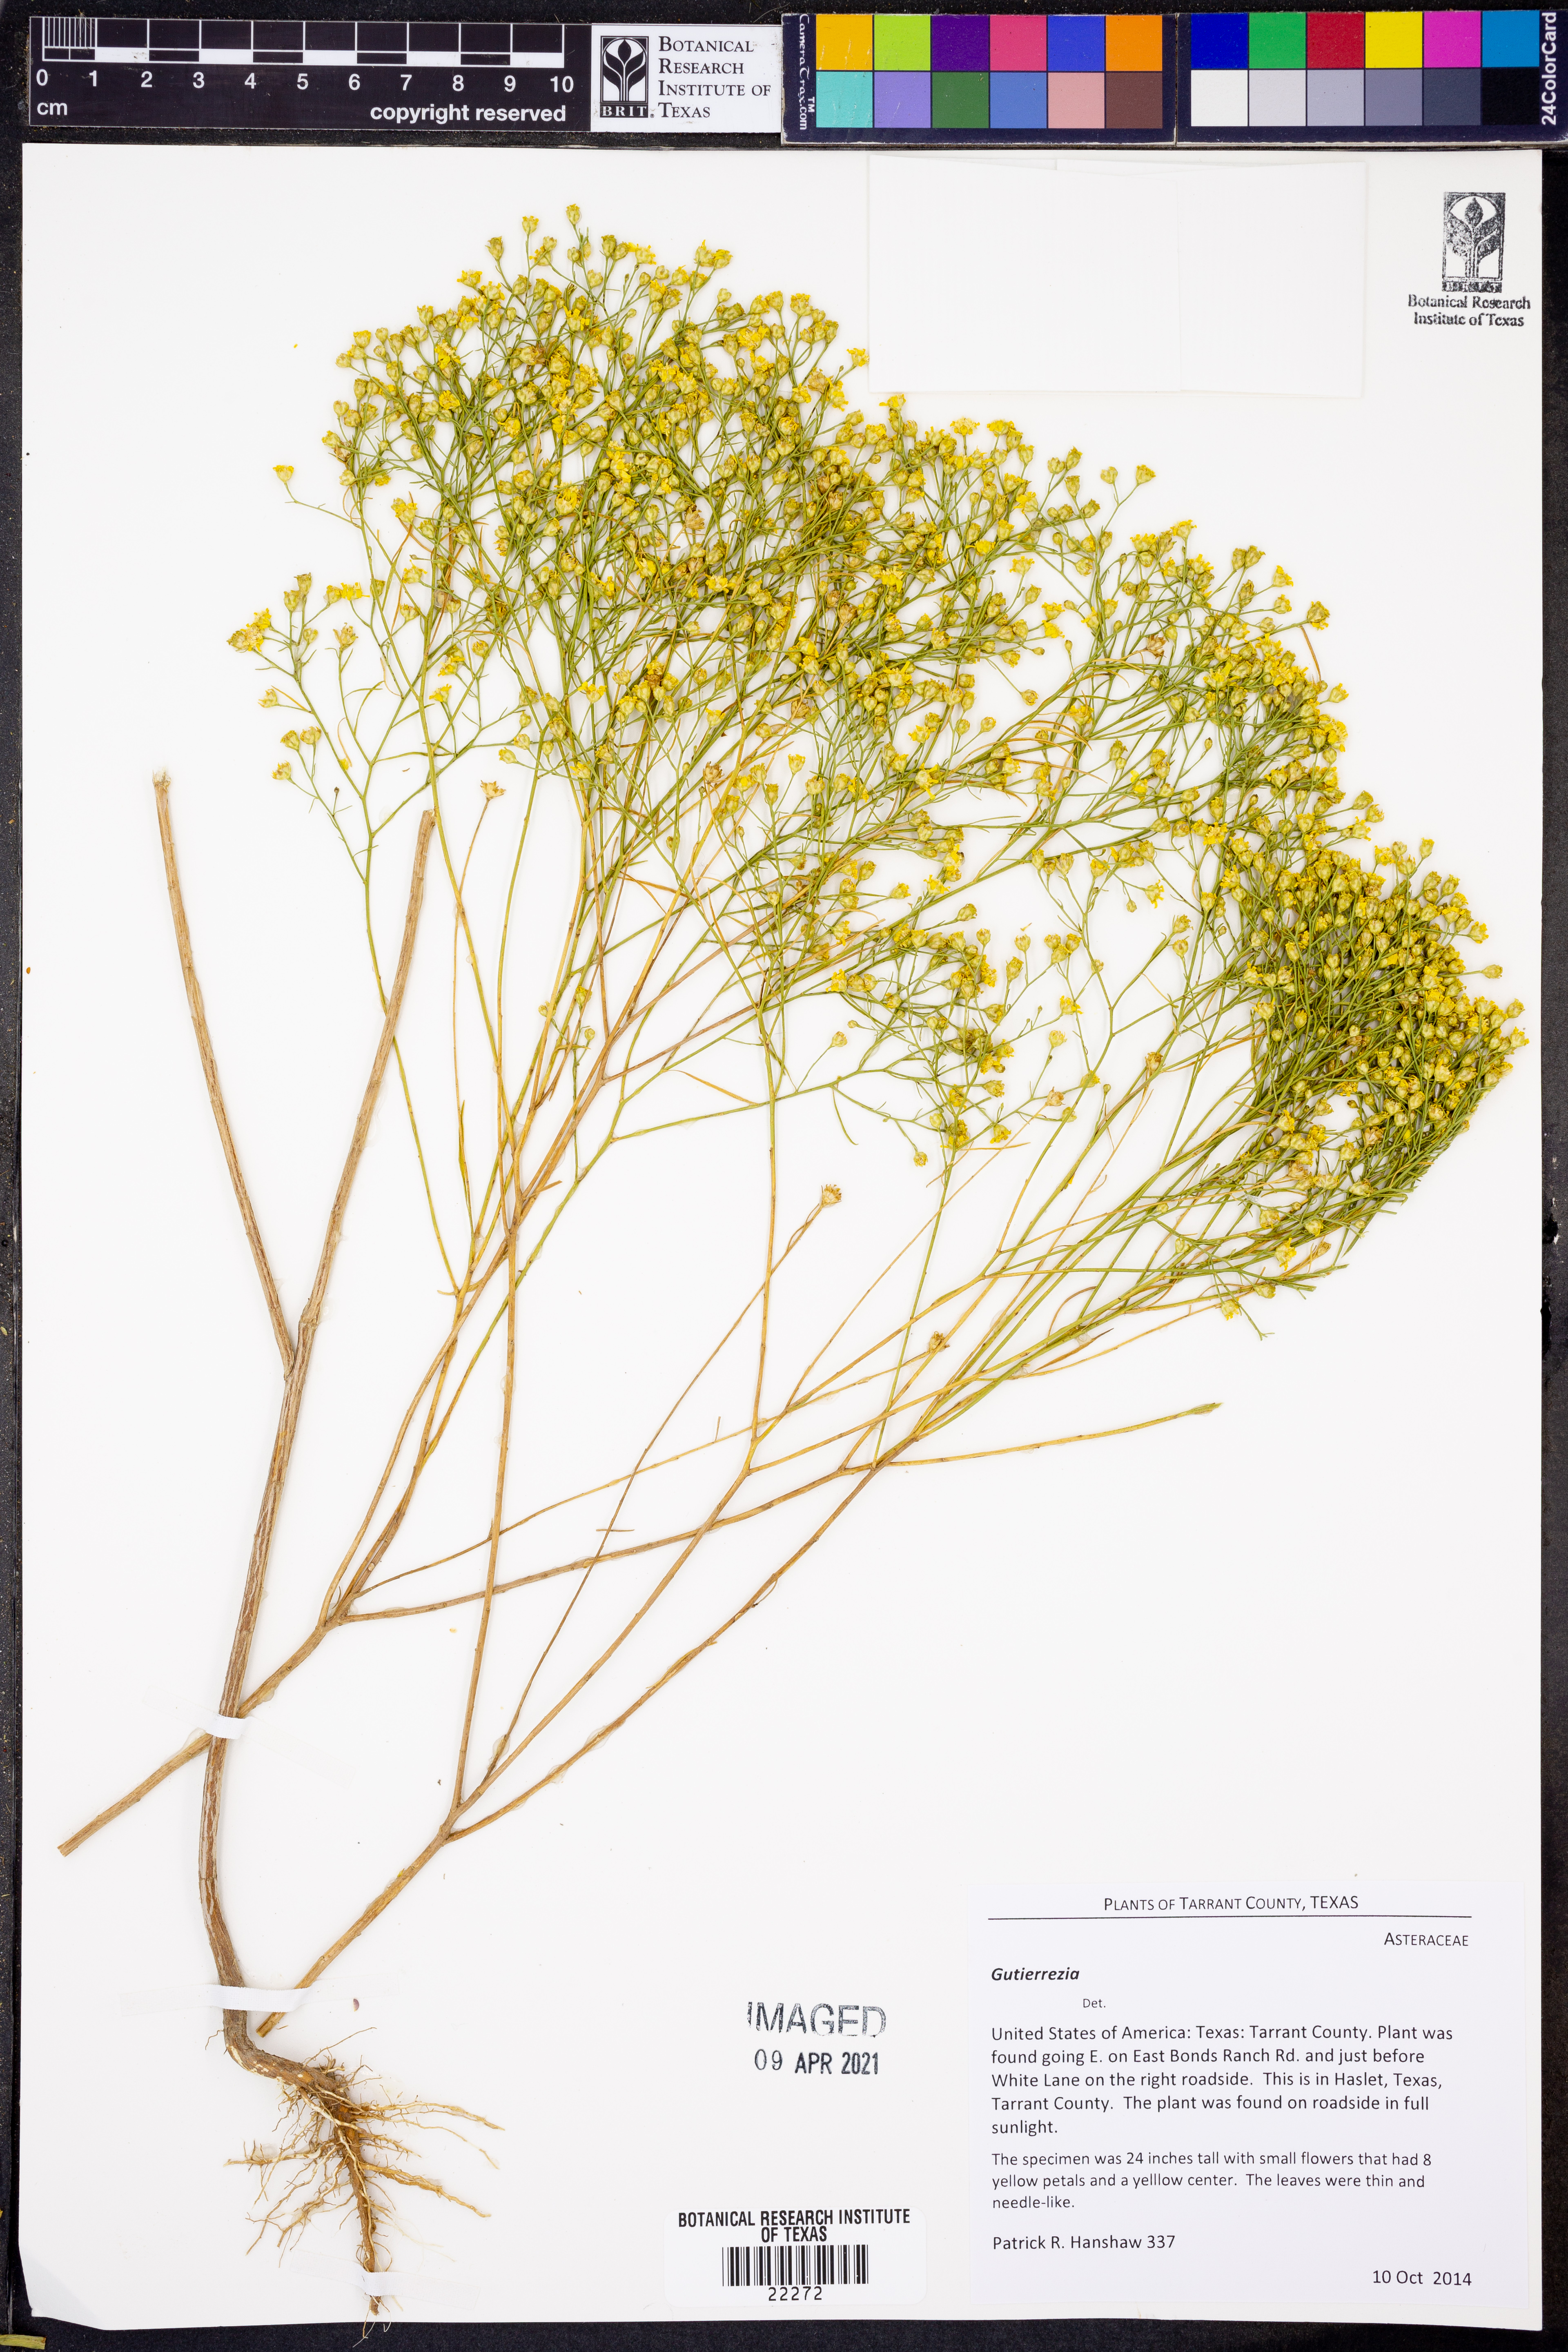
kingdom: Plantae
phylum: Tracheophyta
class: Magnoliopsida
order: Asterales
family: Asteraceae
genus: Gutierrezia
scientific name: Gutierrezia
